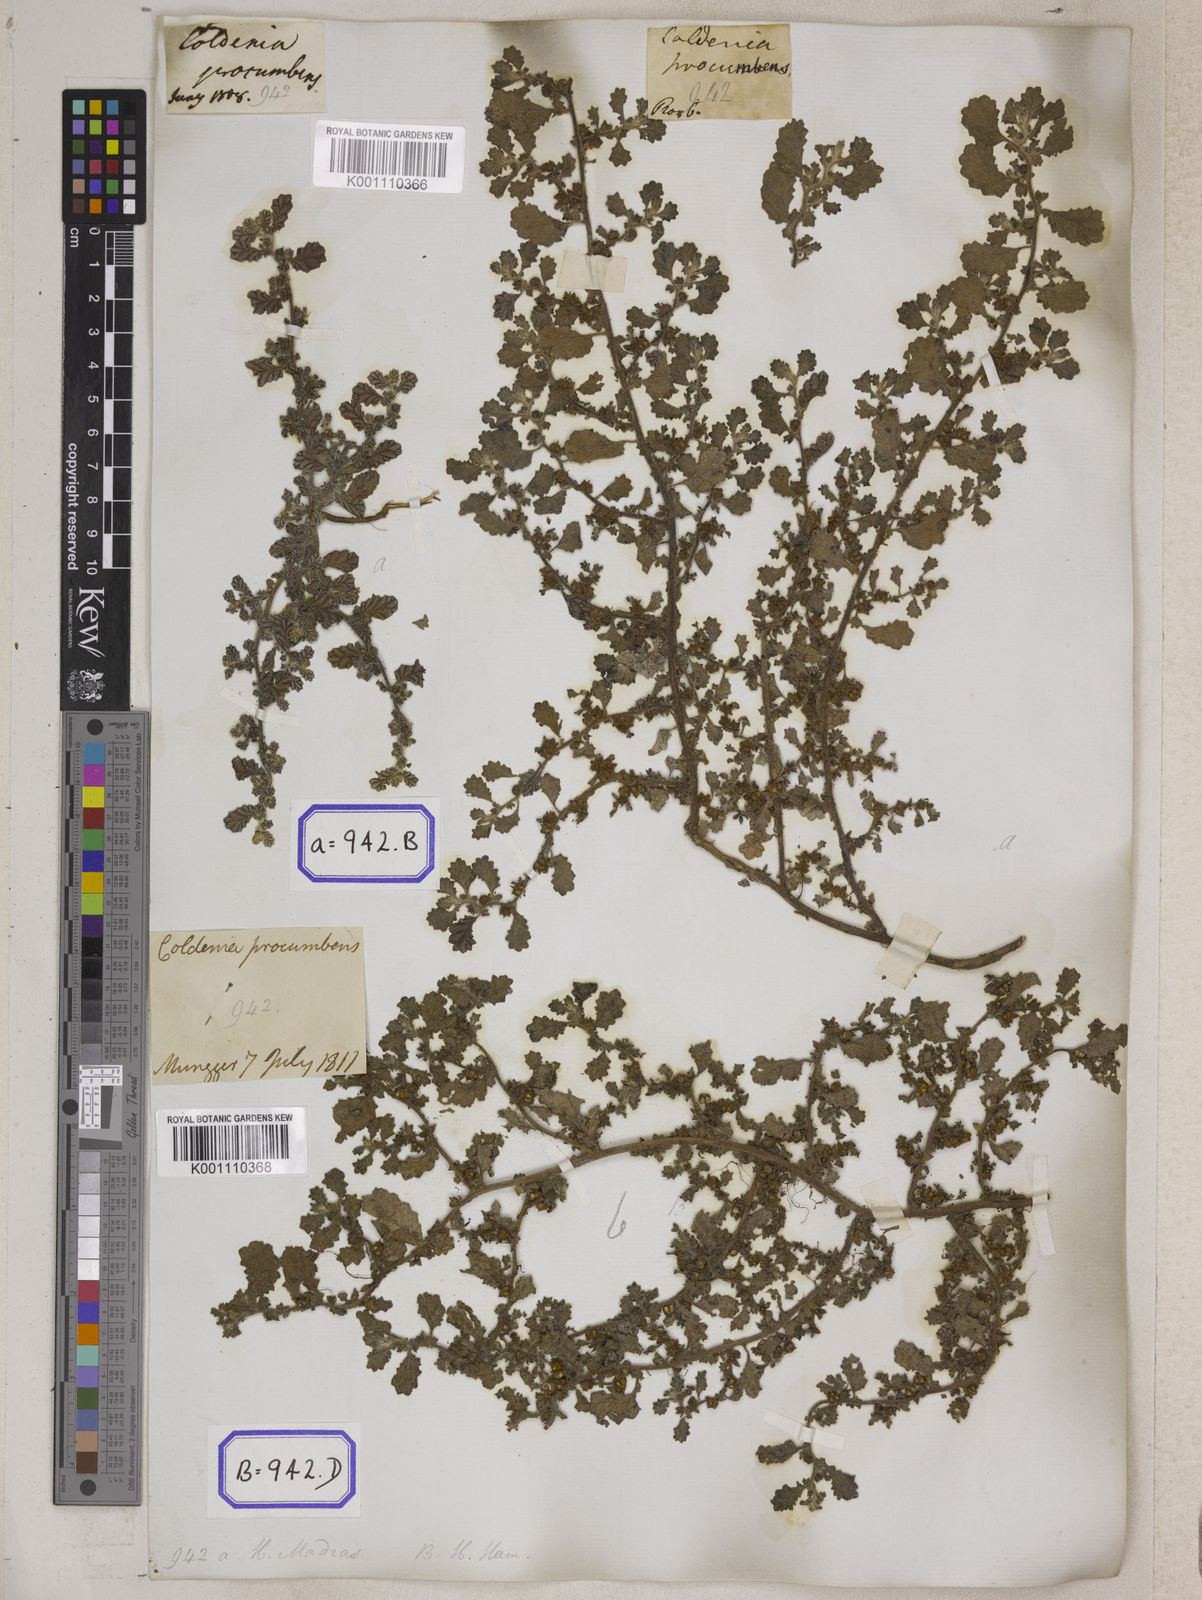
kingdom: Plantae
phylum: Tracheophyta
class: Magnoliopsida
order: Boraginales
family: Coldeniaceae
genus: Coldenia
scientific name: Coldenia procumbens
